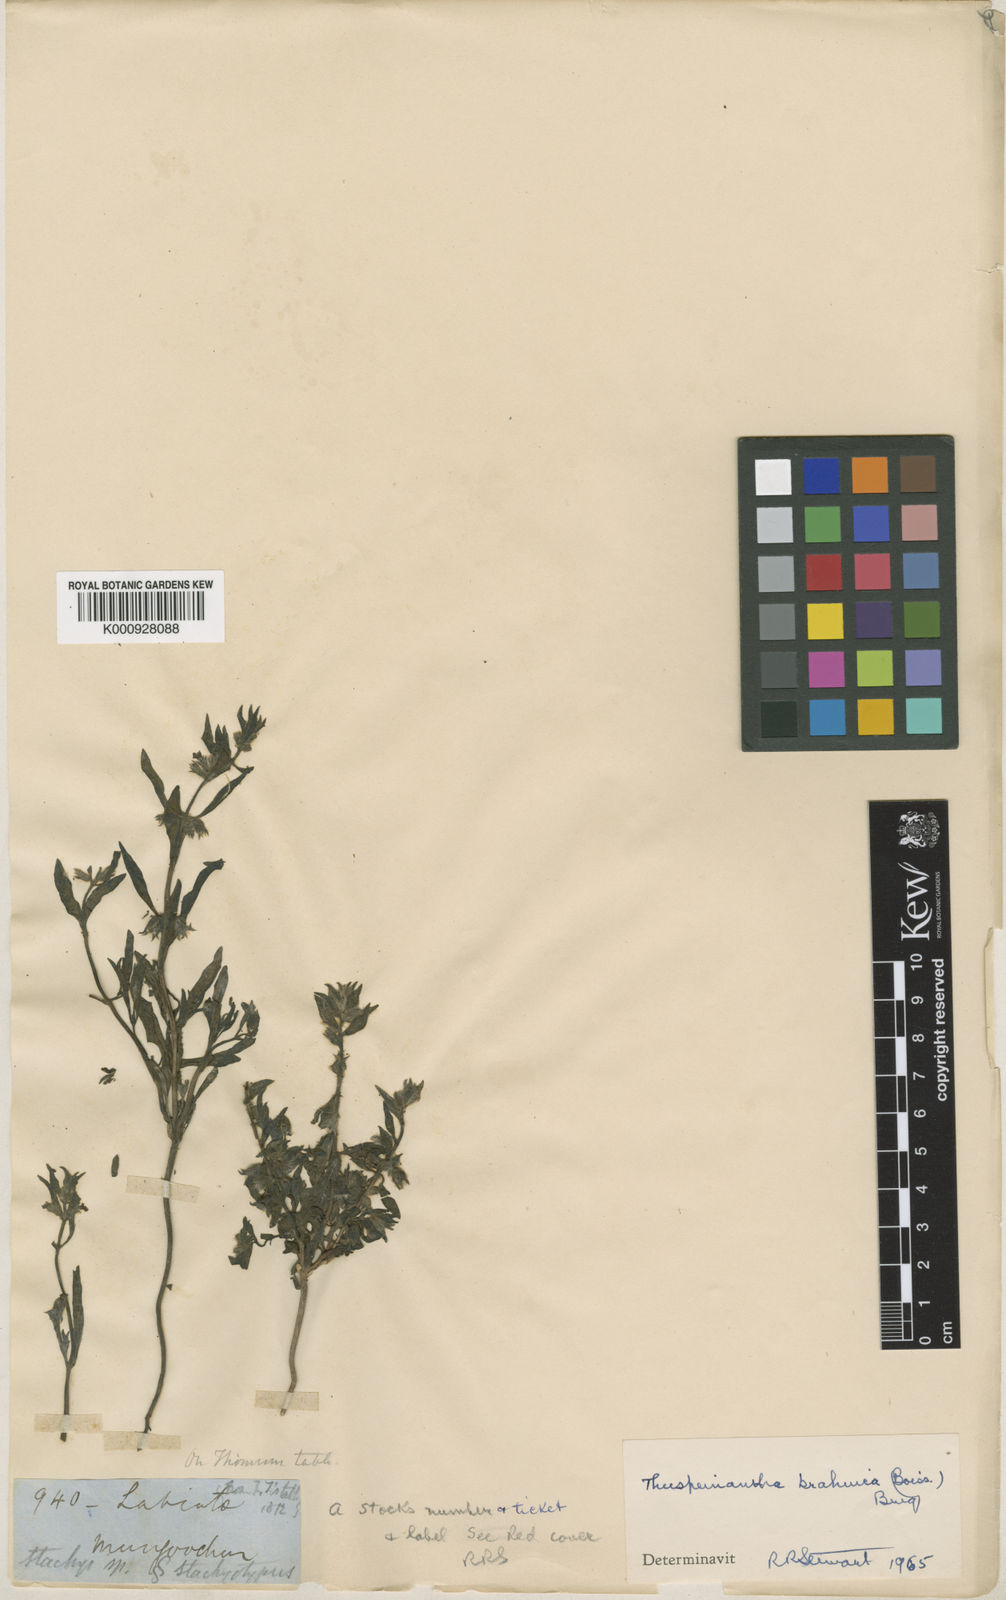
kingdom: Plantae
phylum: Tracheophyta
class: Magnoliopsida
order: Lamiales
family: Lamiaceae
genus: Thuspeinanta
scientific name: Thuspeinanta brahuica
